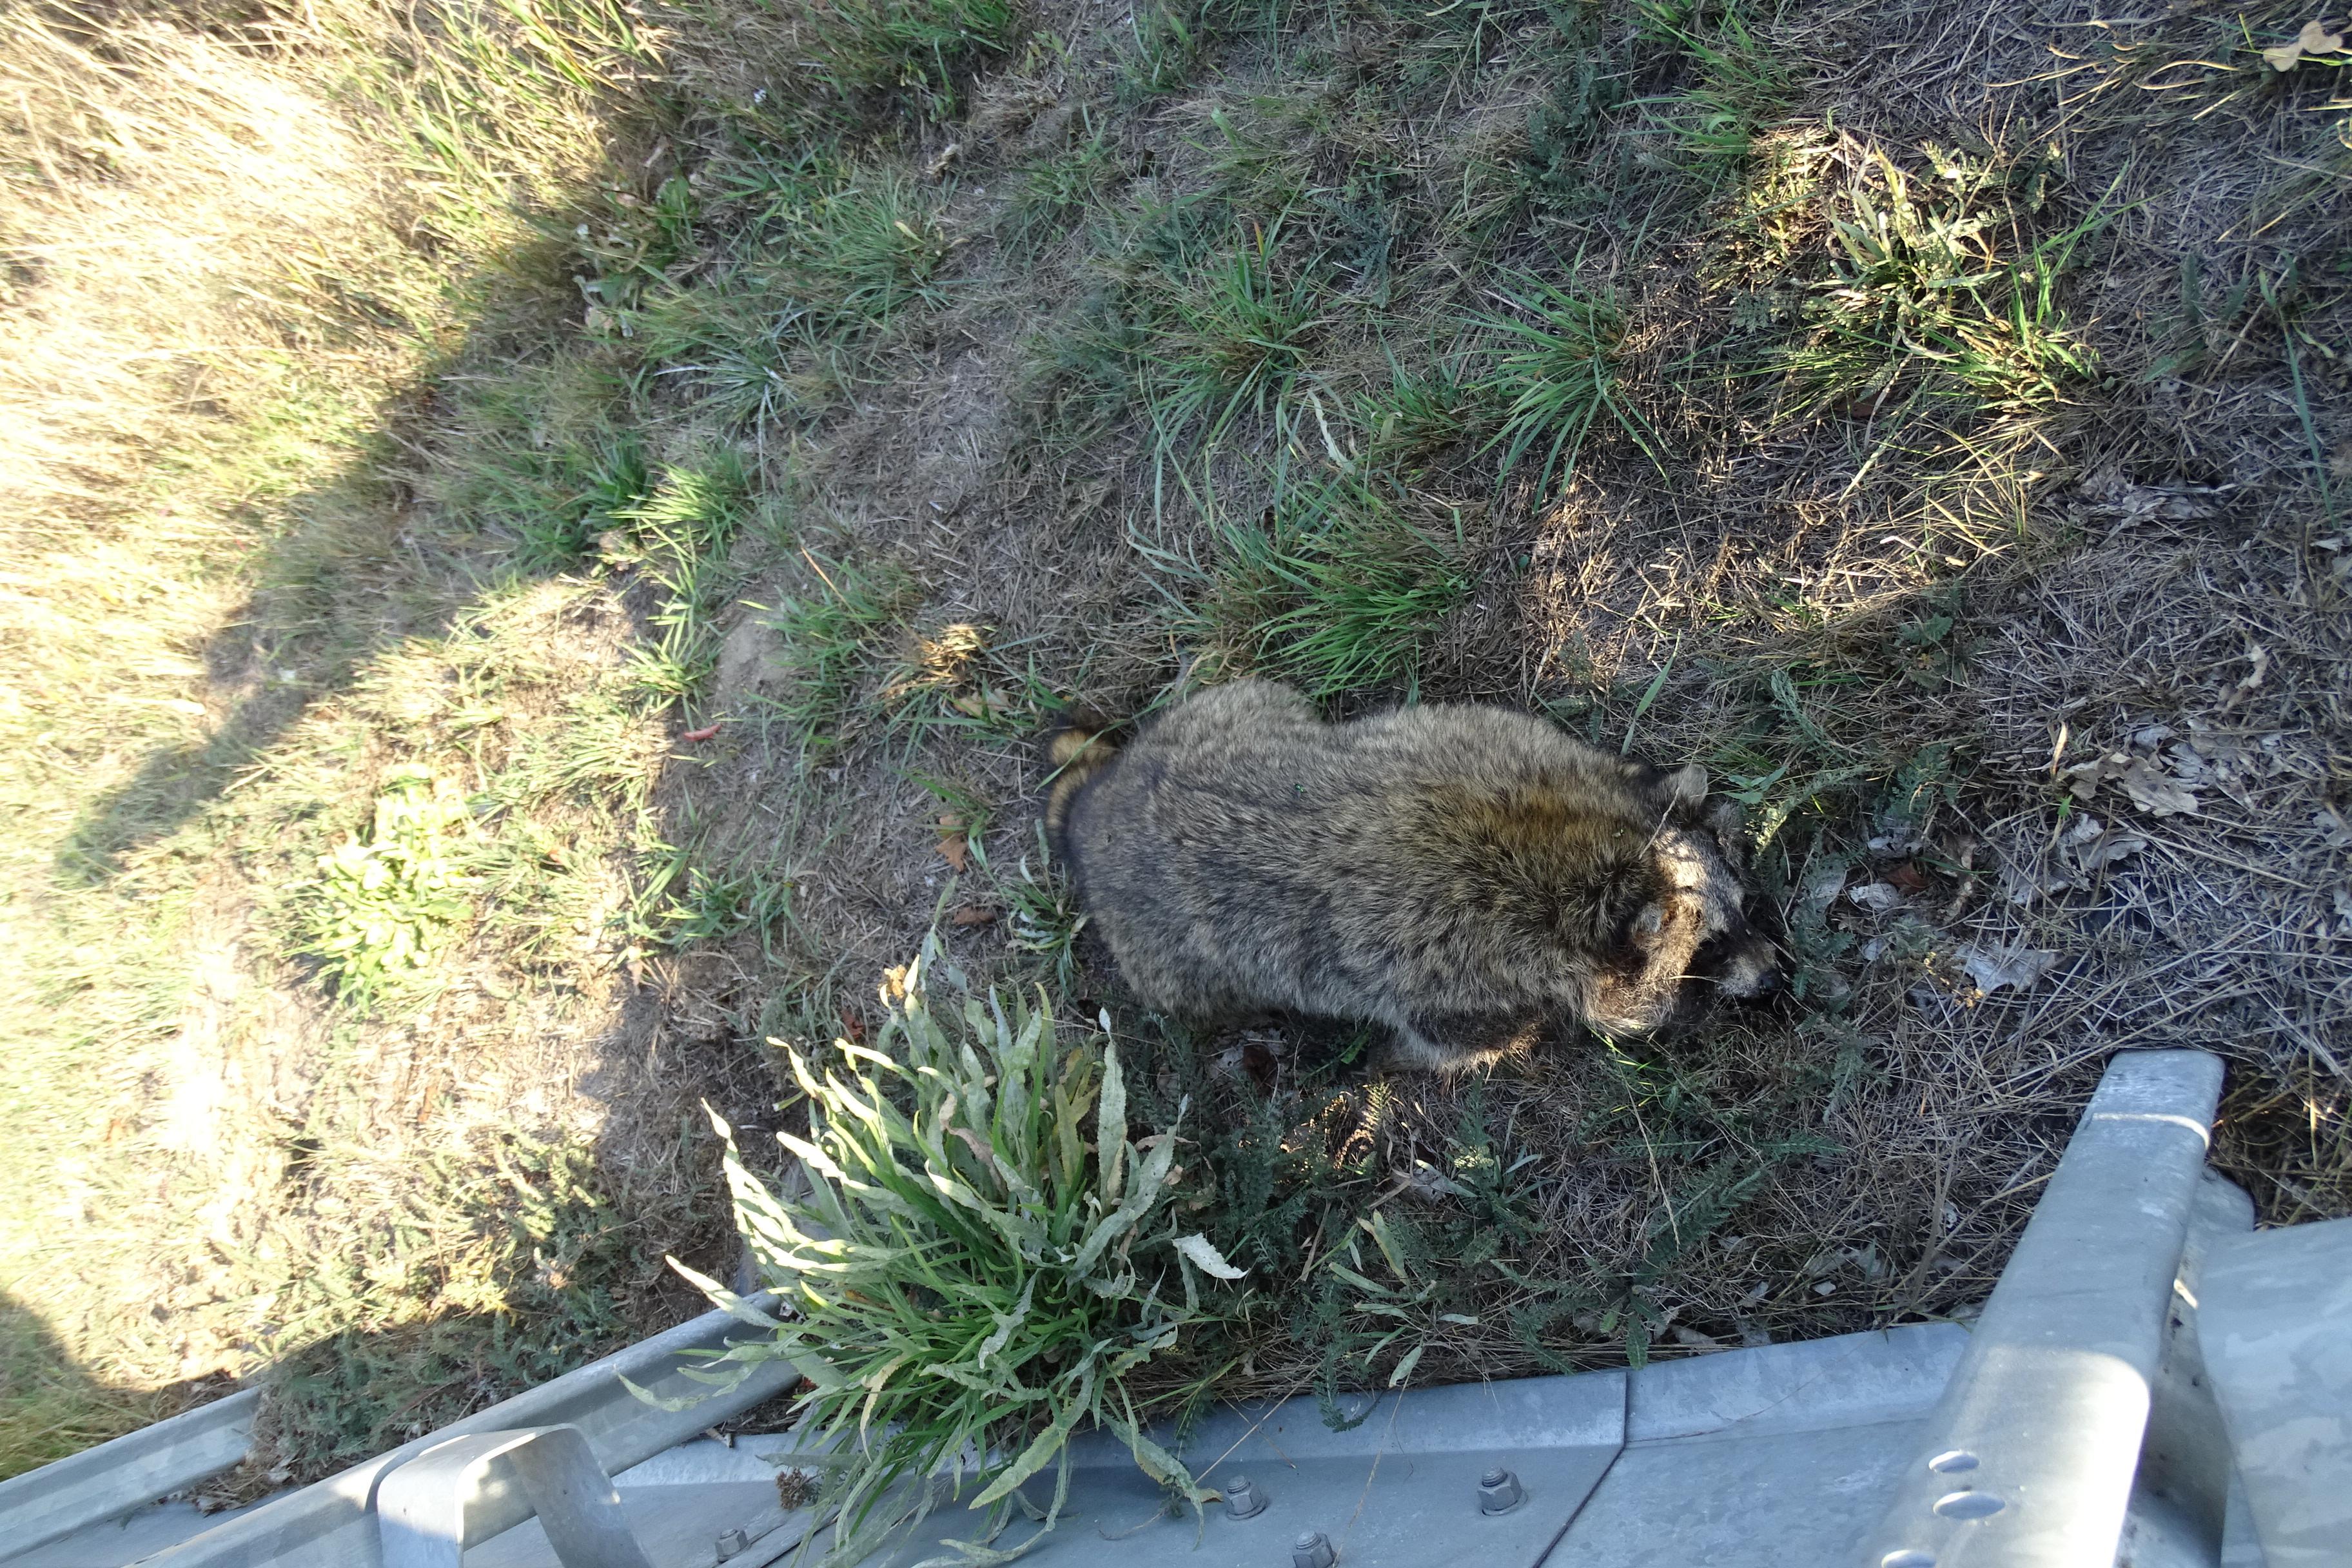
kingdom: Animalia
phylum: Chordata
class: Mammalia
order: Carnivora
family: Procyonidae
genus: Procyon
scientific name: Procyon lotor
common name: Raccoon
